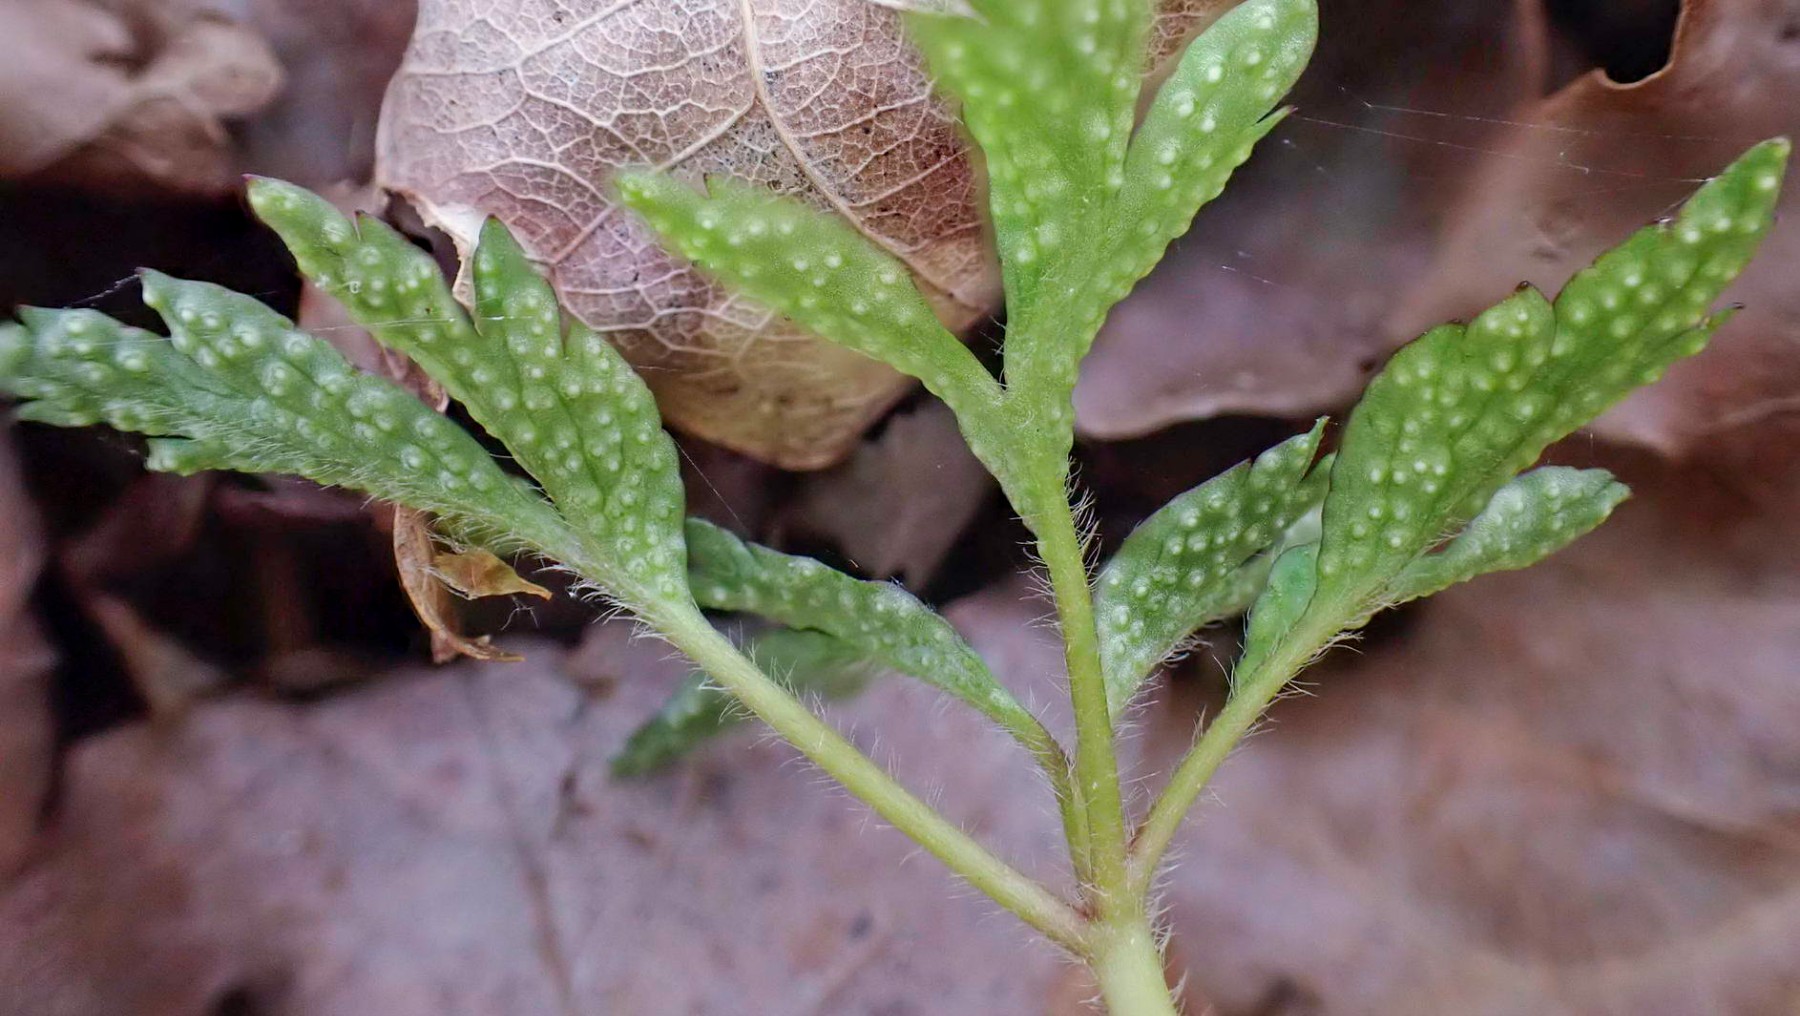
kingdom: Fungi
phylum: Basidiomycota
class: Pucciniomycetes
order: Pucciniales
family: Ochropsoraceae
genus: Ochropsora
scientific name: Ochropsora ariae
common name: anemone-okkerpletrust
